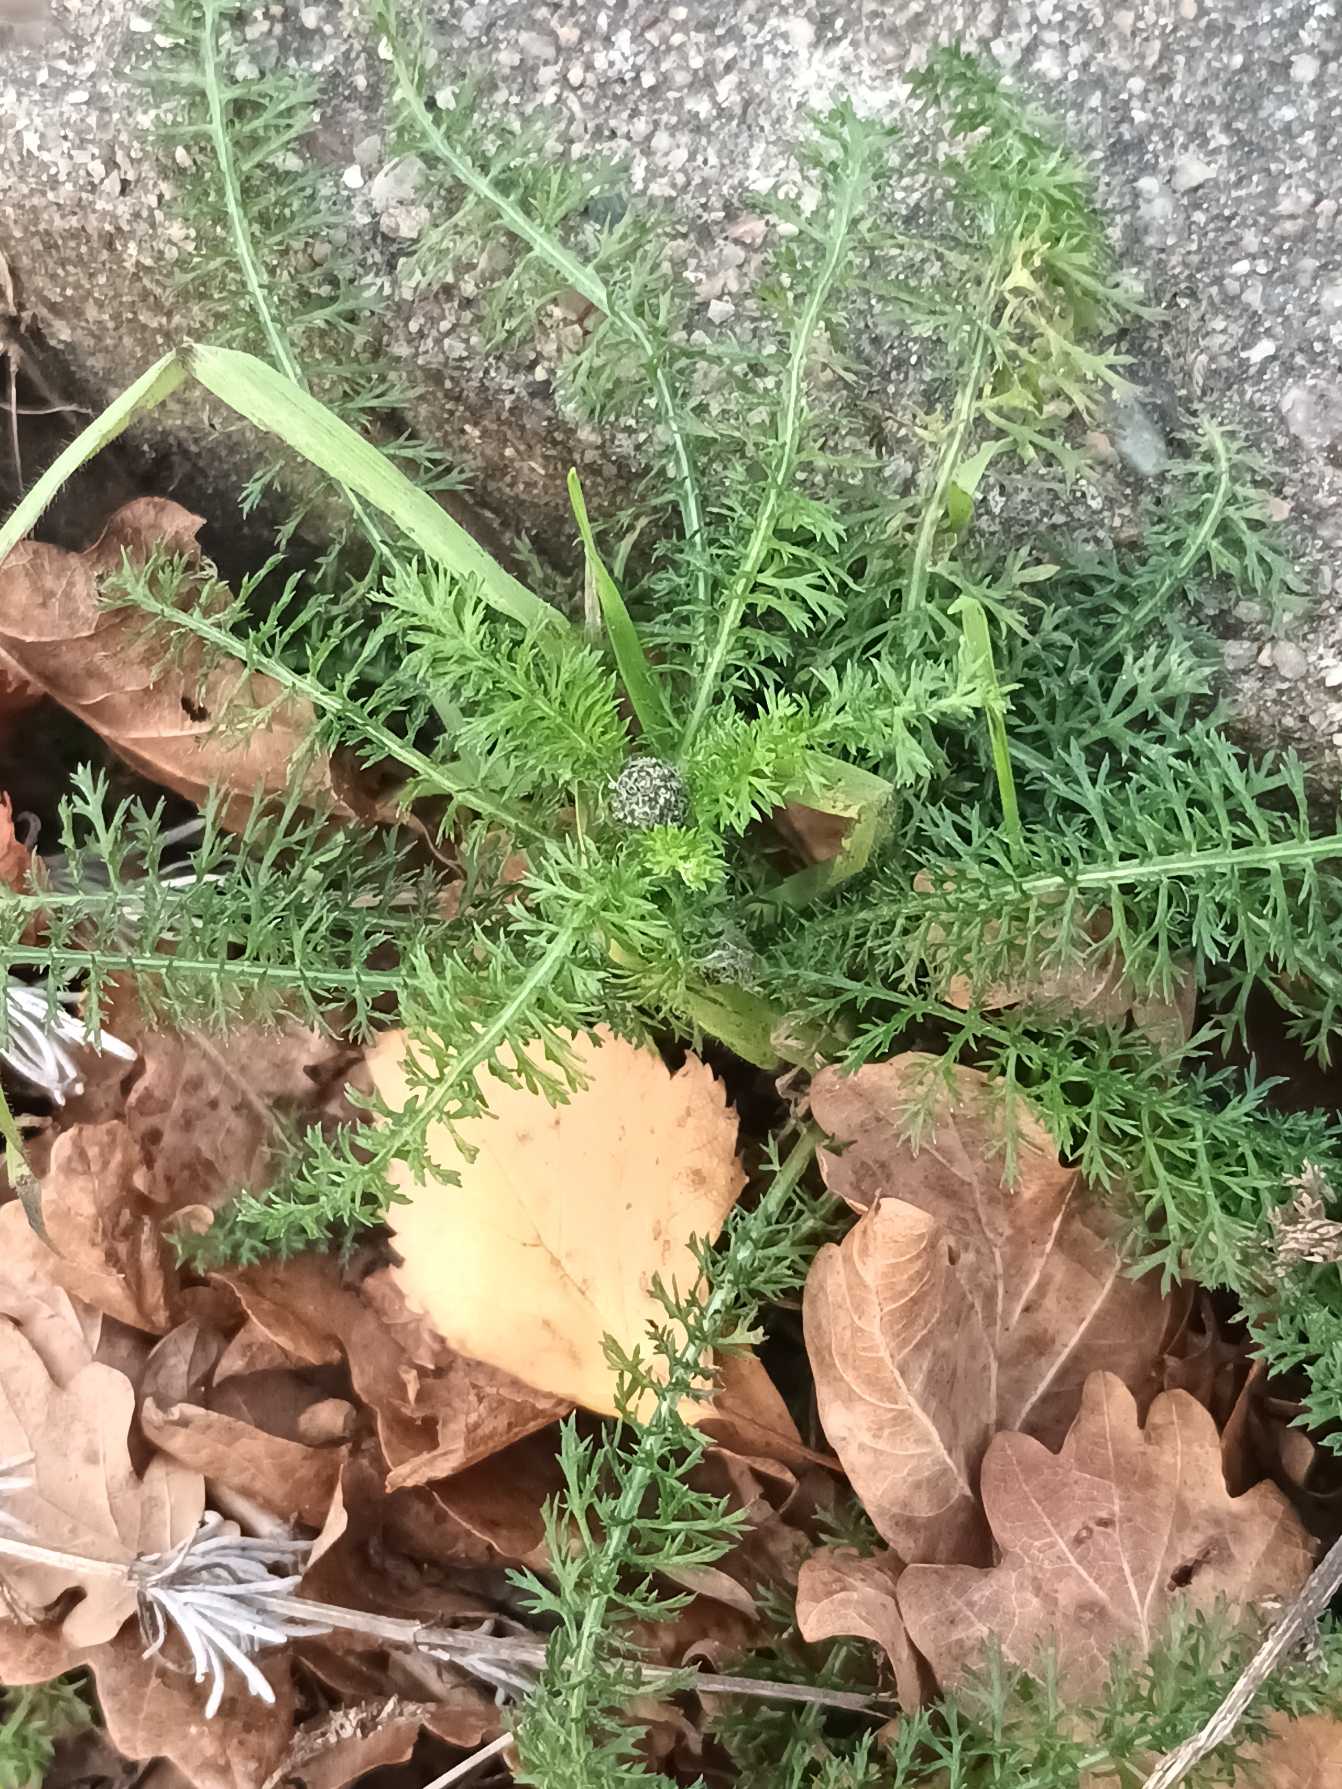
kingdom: Plantae
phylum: Tracheophyta
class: Magnoliopsida
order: Asterales
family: Asteraceae
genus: Achillea
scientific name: Achillea millefolium
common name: Almindelig røllike
